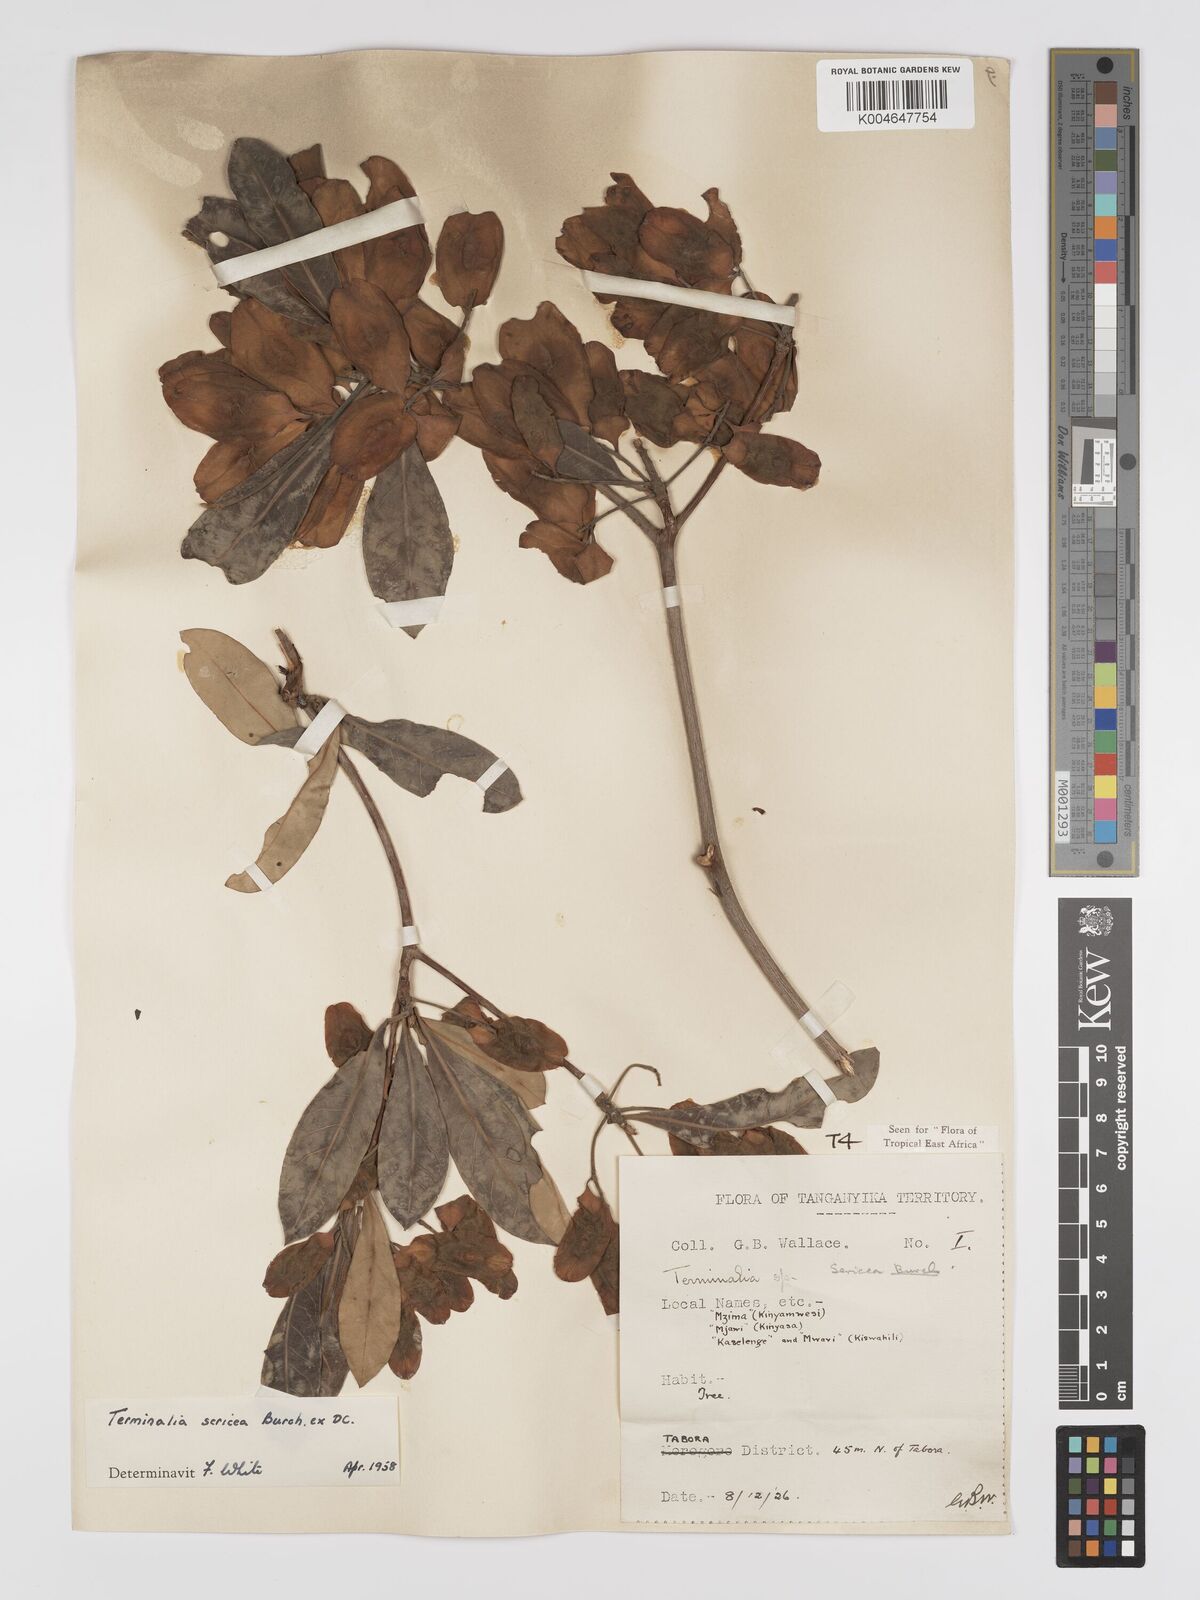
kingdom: Plantae
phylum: Tracheophyta
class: Magnoliopsida
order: Myrtales
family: Combretaceae
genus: Terminalia
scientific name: Terminalia
